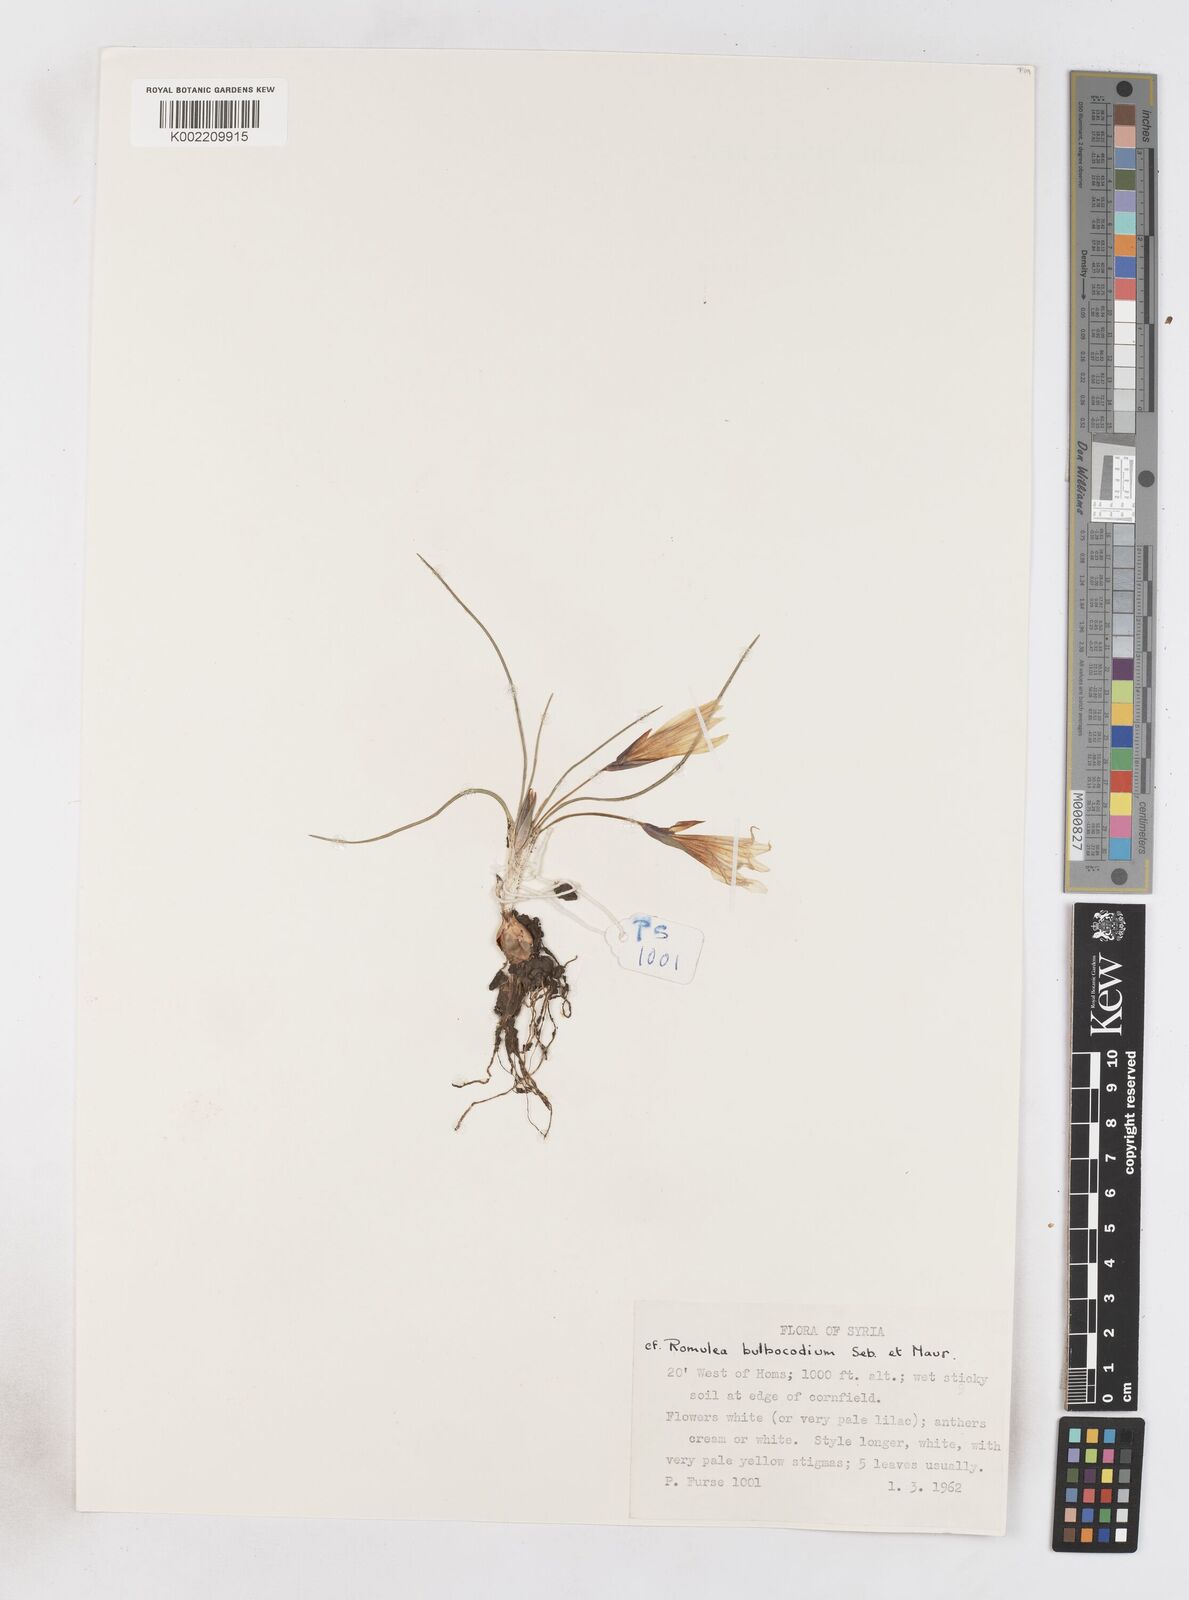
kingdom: Plantae
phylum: Tracheophyta
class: Liliopsida
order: Asparagales
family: Iridaceae
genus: Romulea
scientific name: Romulea bulbocodium
